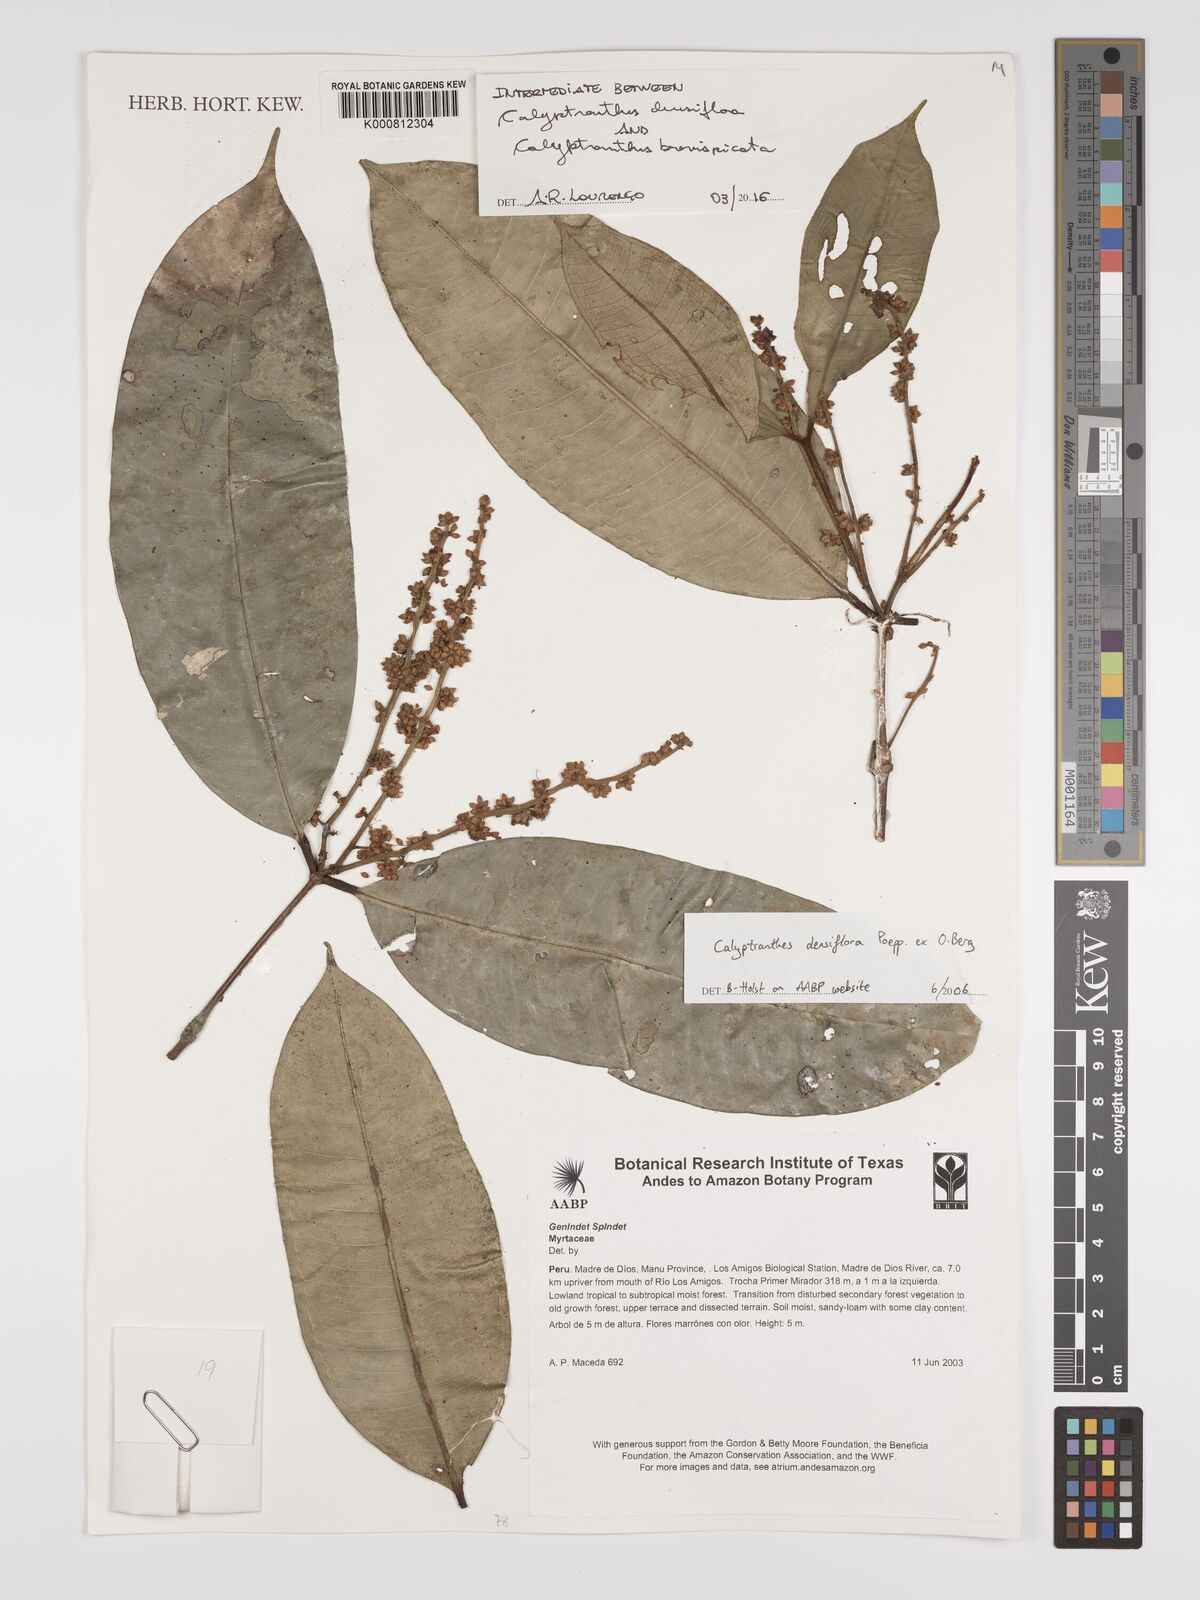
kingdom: Plantae
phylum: Tracheophyta
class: Magnoliopsida
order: Myrtales
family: Myrtaceae
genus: Myrceugenia
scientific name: Myrceugenia
